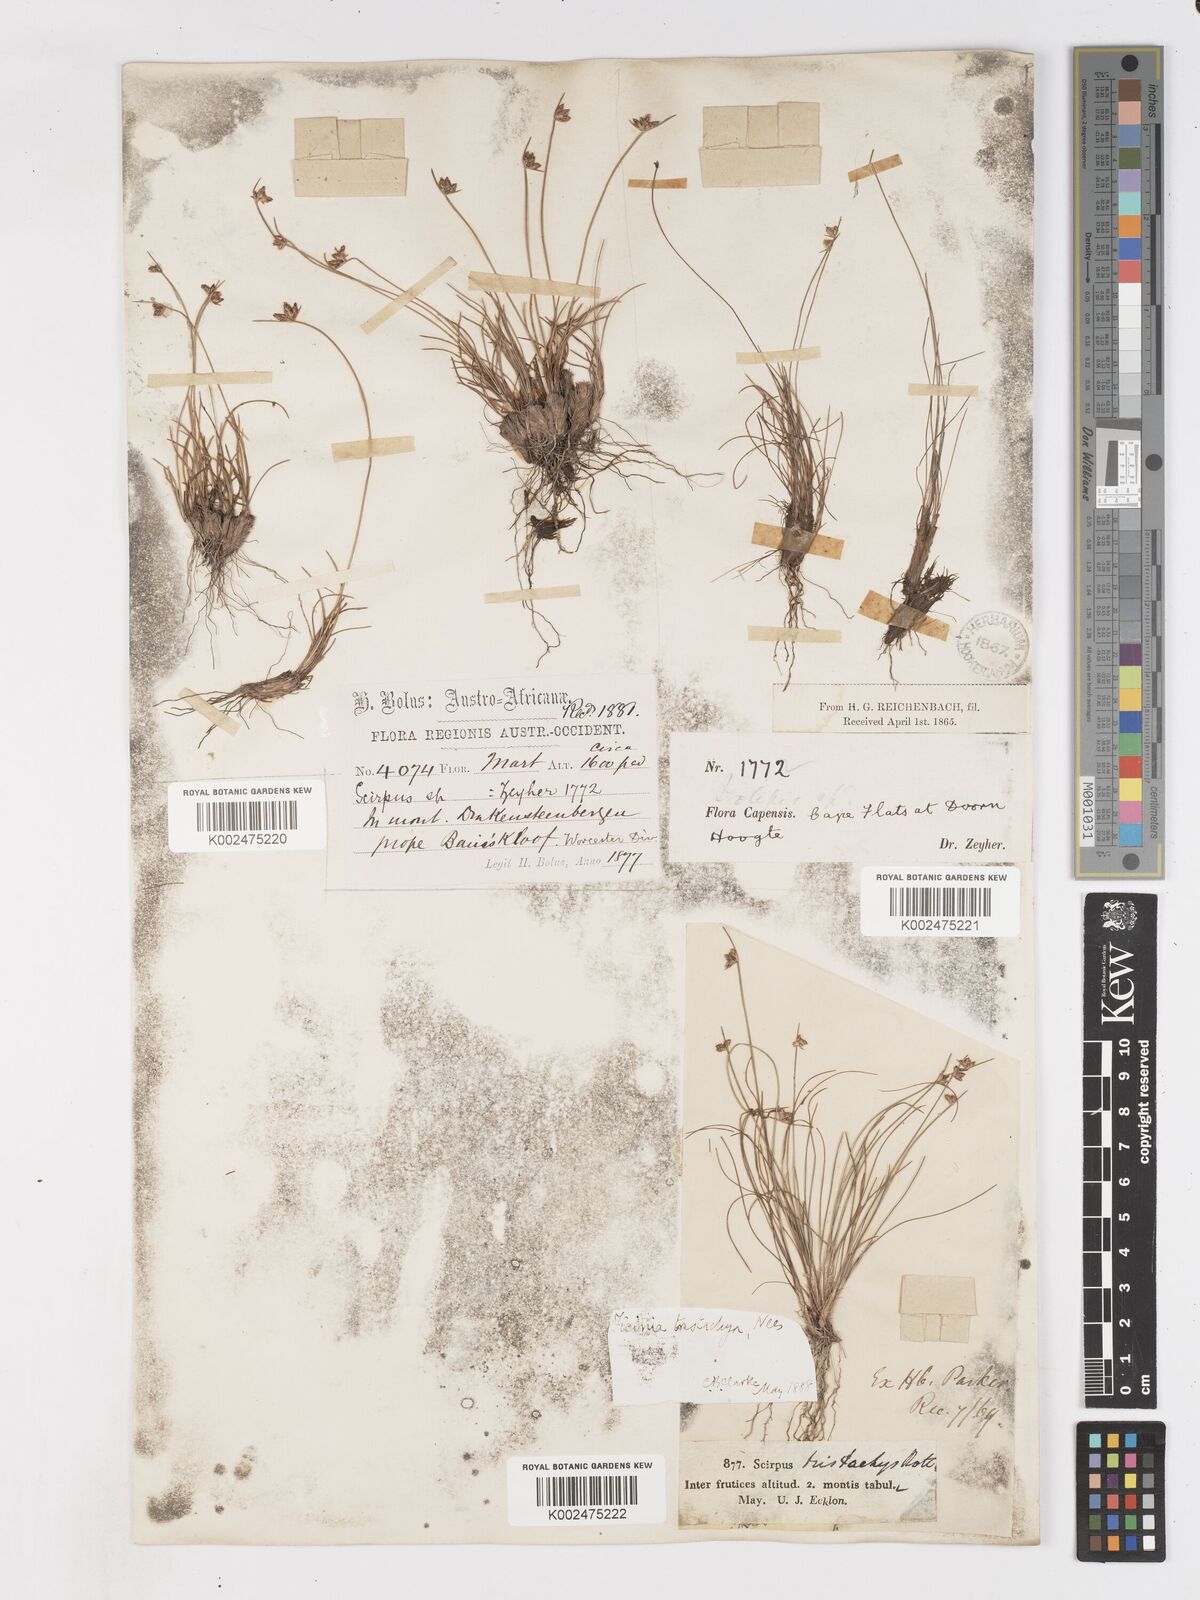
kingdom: Plantae
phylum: Tracheophyta
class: Liliopsida
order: Poales
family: Cyperaceae
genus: Ficinia
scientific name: Ficinia tristachya
